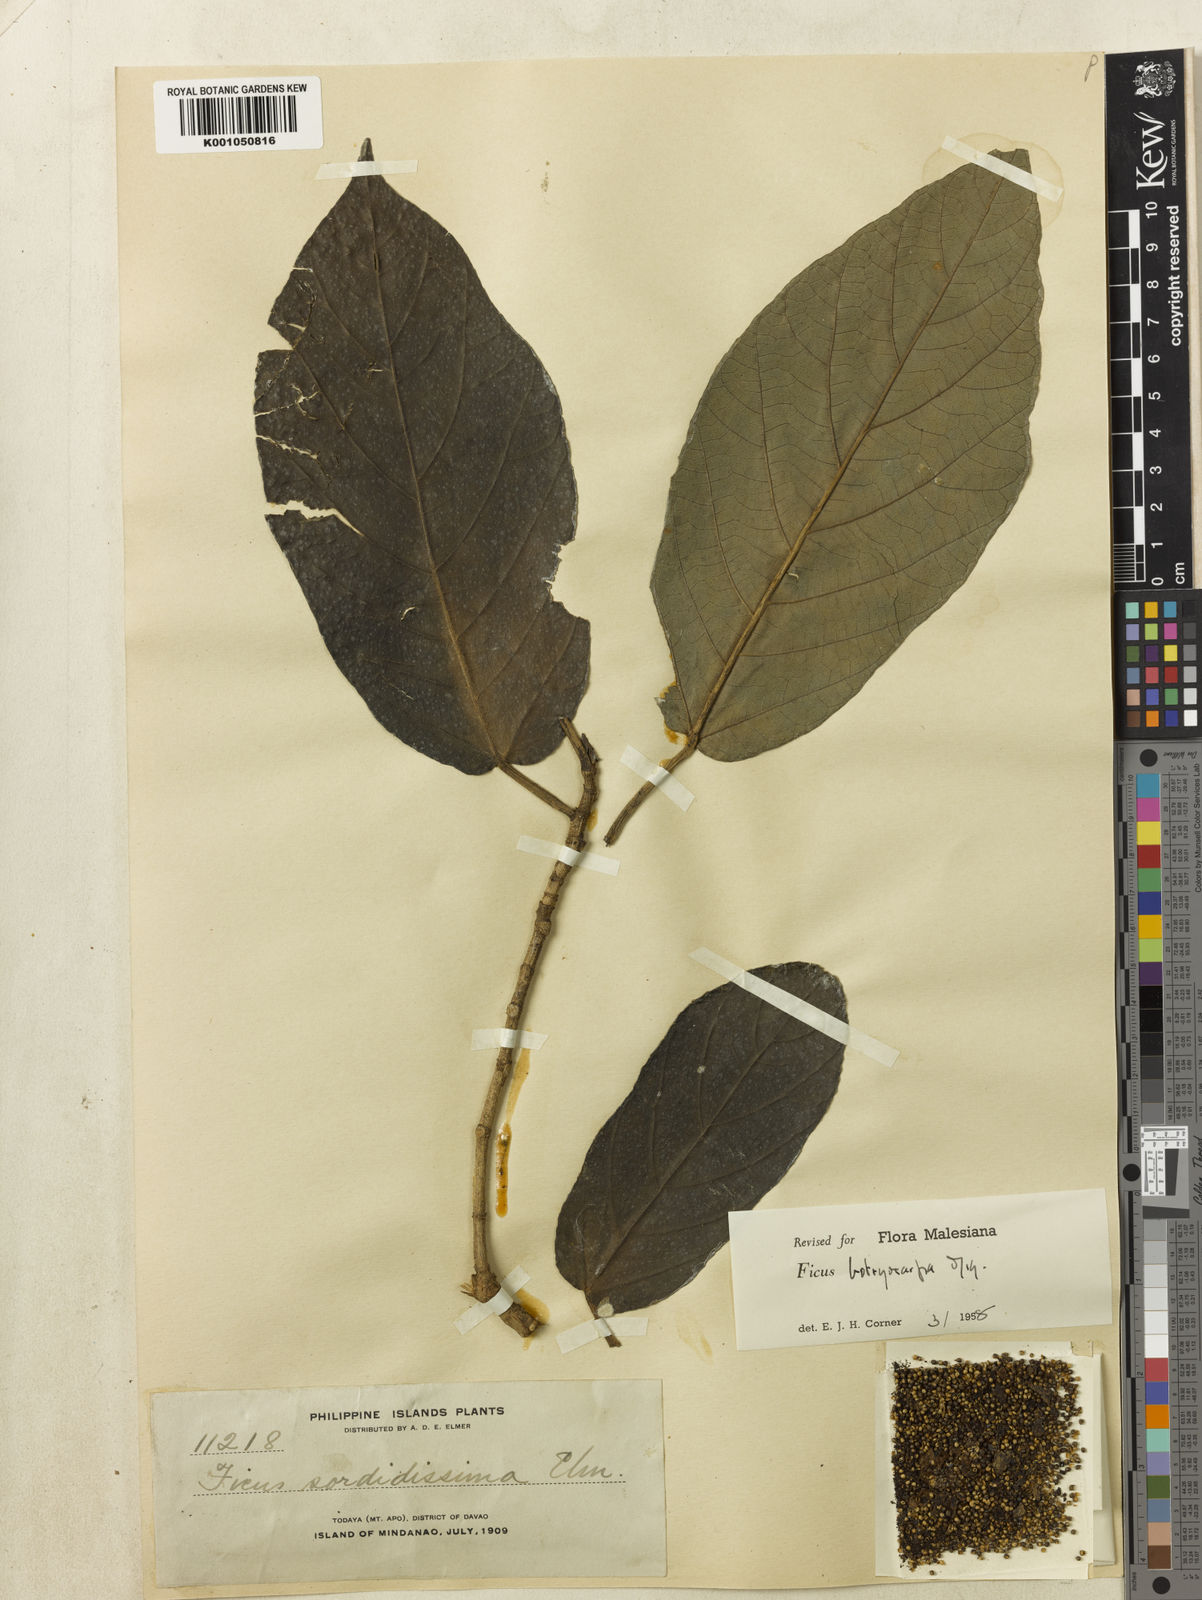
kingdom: Plantae
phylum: Tracheophyta
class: Magnoliopsida
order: Rosales
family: Moraceae
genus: Ficus
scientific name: Ficus botryocarpa
